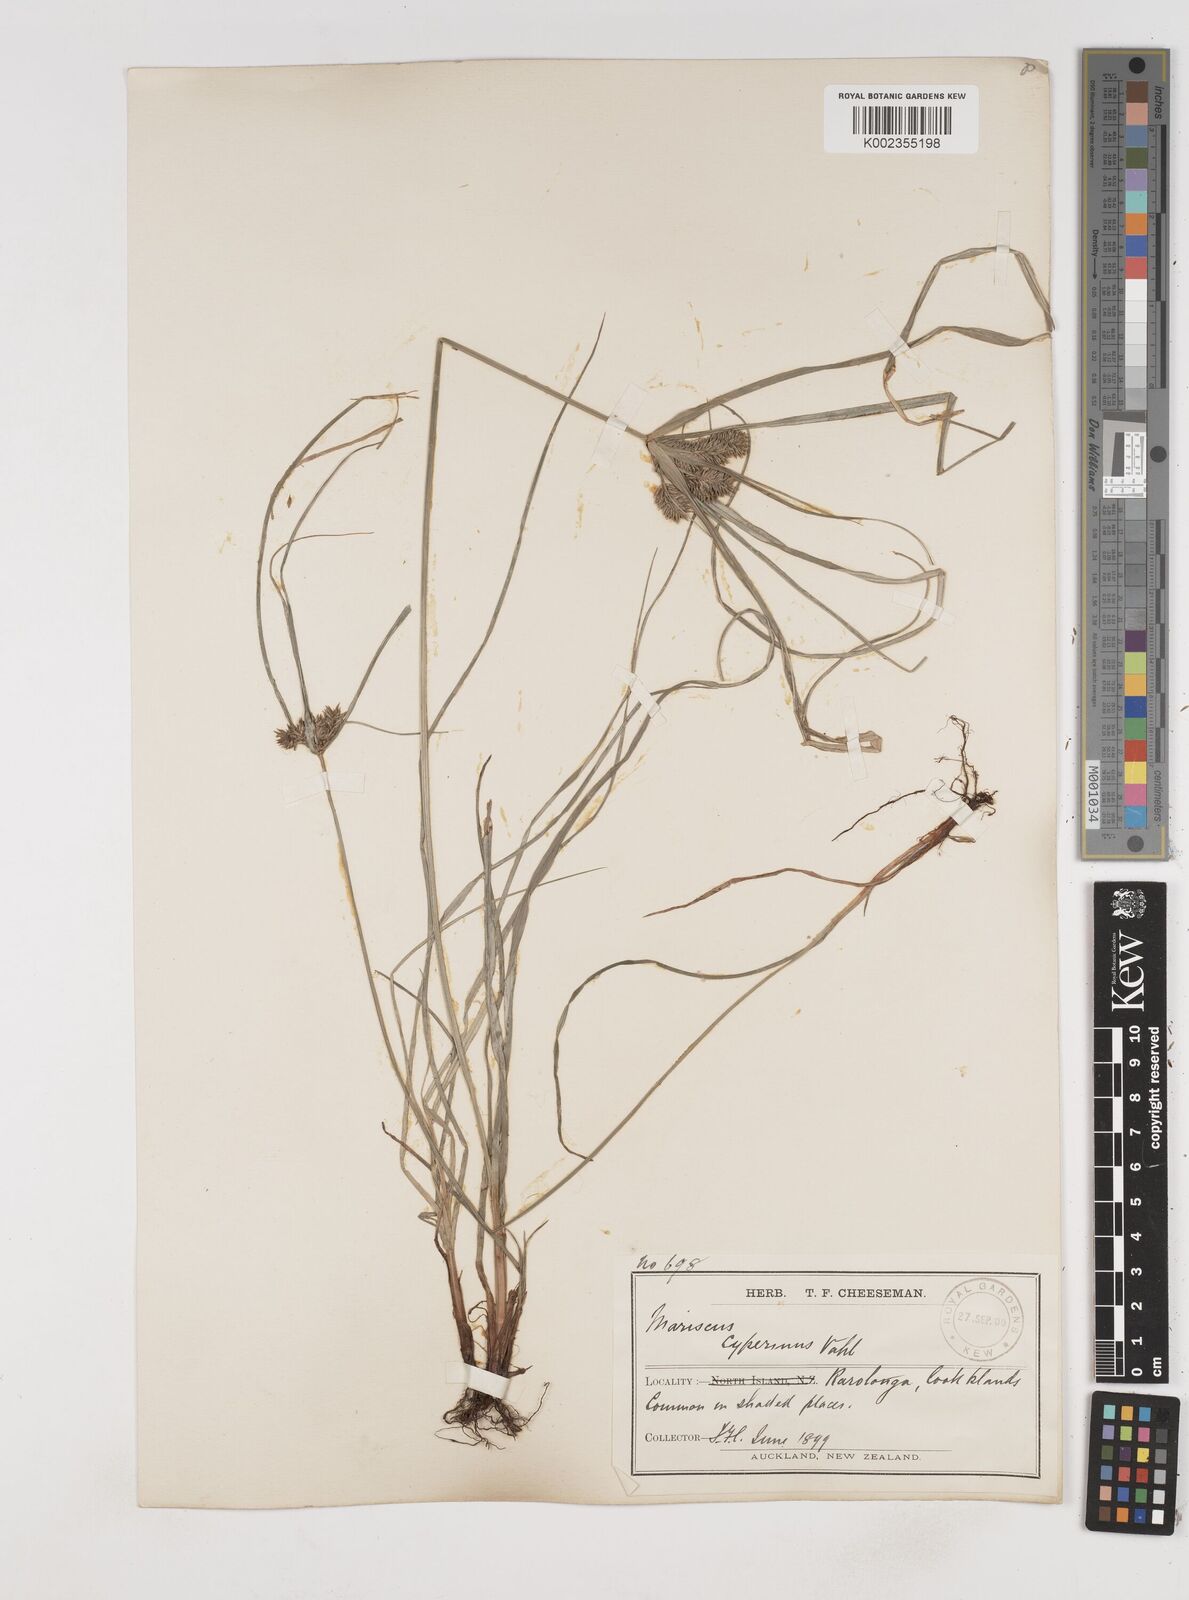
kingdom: Plantae
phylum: Tracheophyta
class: Liliopsida
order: Poales
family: Cyperaceae
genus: Cyperus
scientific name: Cyperus cyperinus
